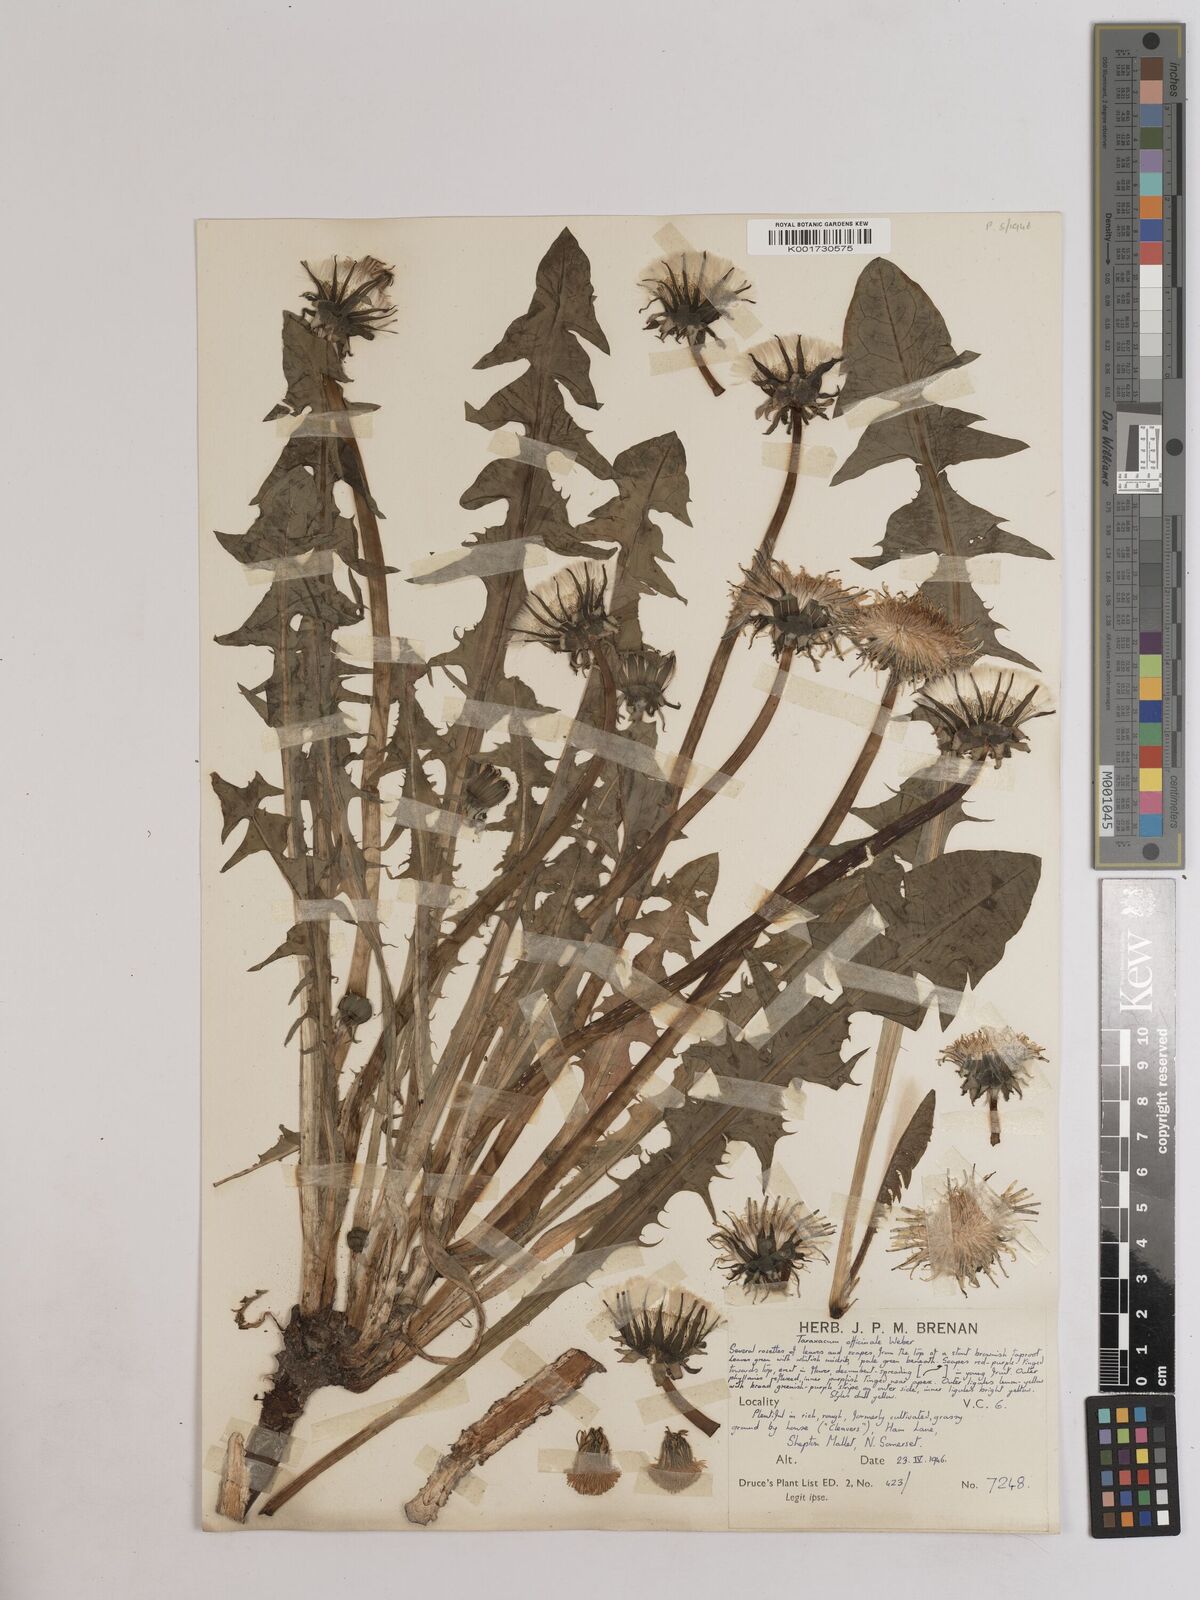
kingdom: Plantae
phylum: Tracheophyta
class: Magnoliopsida
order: Asterales
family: Asteraceae
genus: Taraxacum
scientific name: Taraxacum officinale
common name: Common dandelion
